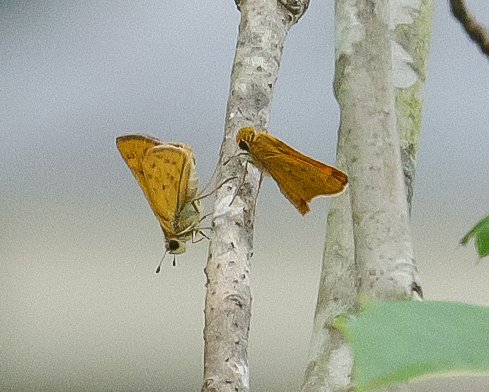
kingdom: Animalia
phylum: Arthropoda
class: Insecta
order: Lepidoptera
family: Hesperiidae
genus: Hylephila
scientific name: Hylephila phyleus
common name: Fiery Skipper
